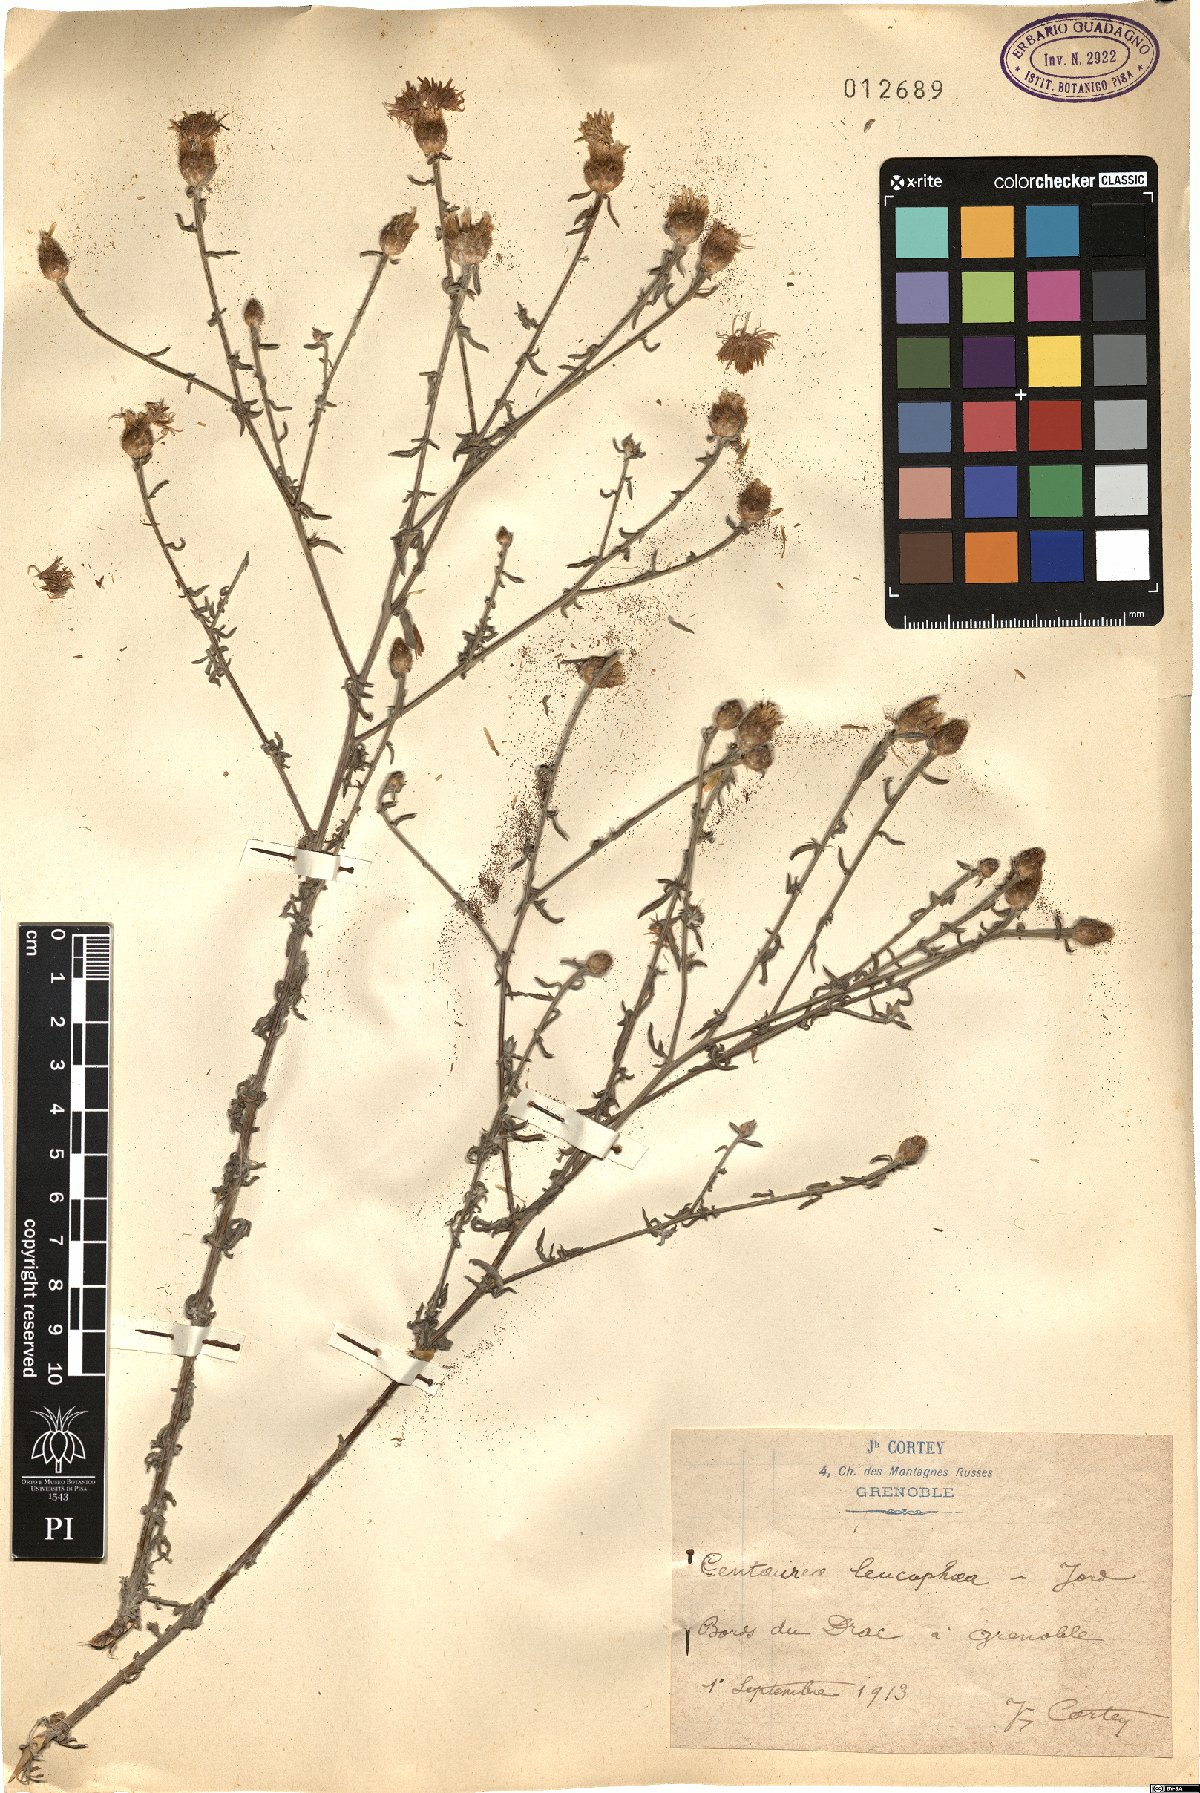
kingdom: Plantae
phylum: Tracheophyta
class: Magnoliopsida
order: Asterales
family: Asteraceae
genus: Centaurea
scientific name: Centaurea leucophaea
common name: Whitish-leaved knapweed
